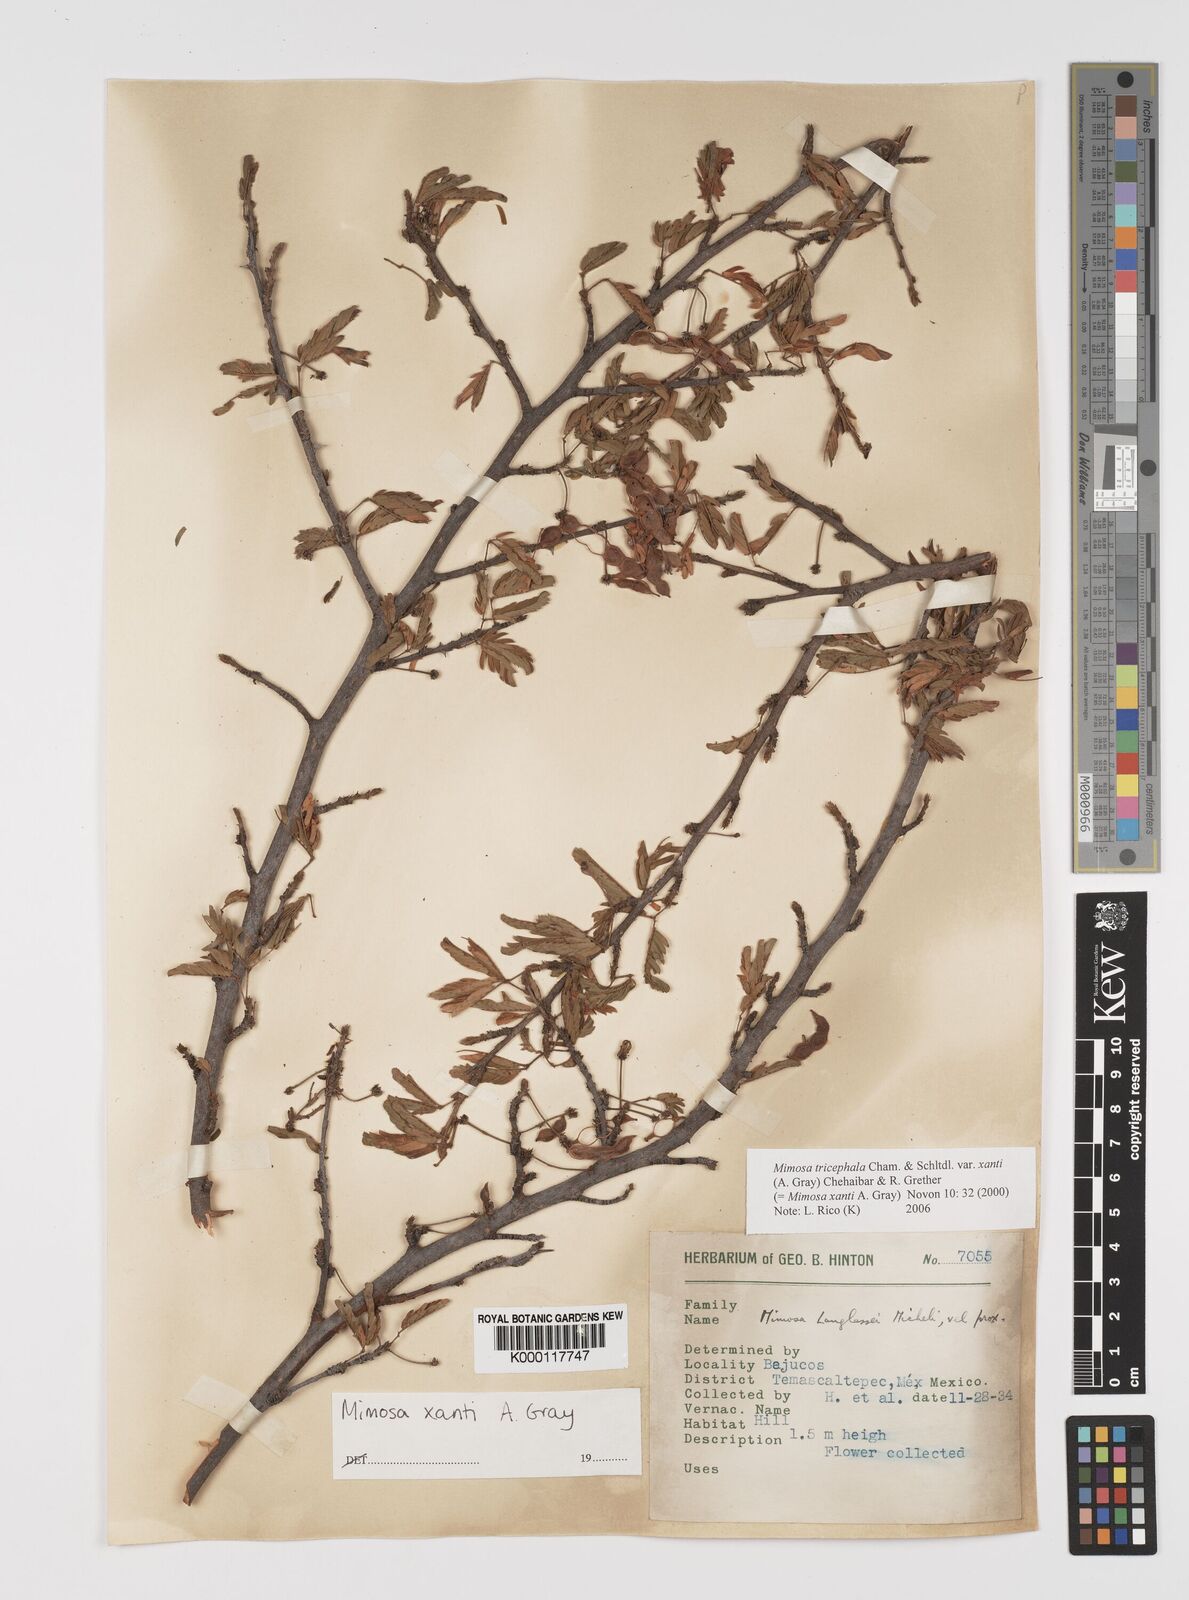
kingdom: Plantae
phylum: Tracheophyta
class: Magnoliopsida
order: Fabales
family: Fabaceae
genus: Mimosa
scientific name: Mimosa tricephala
